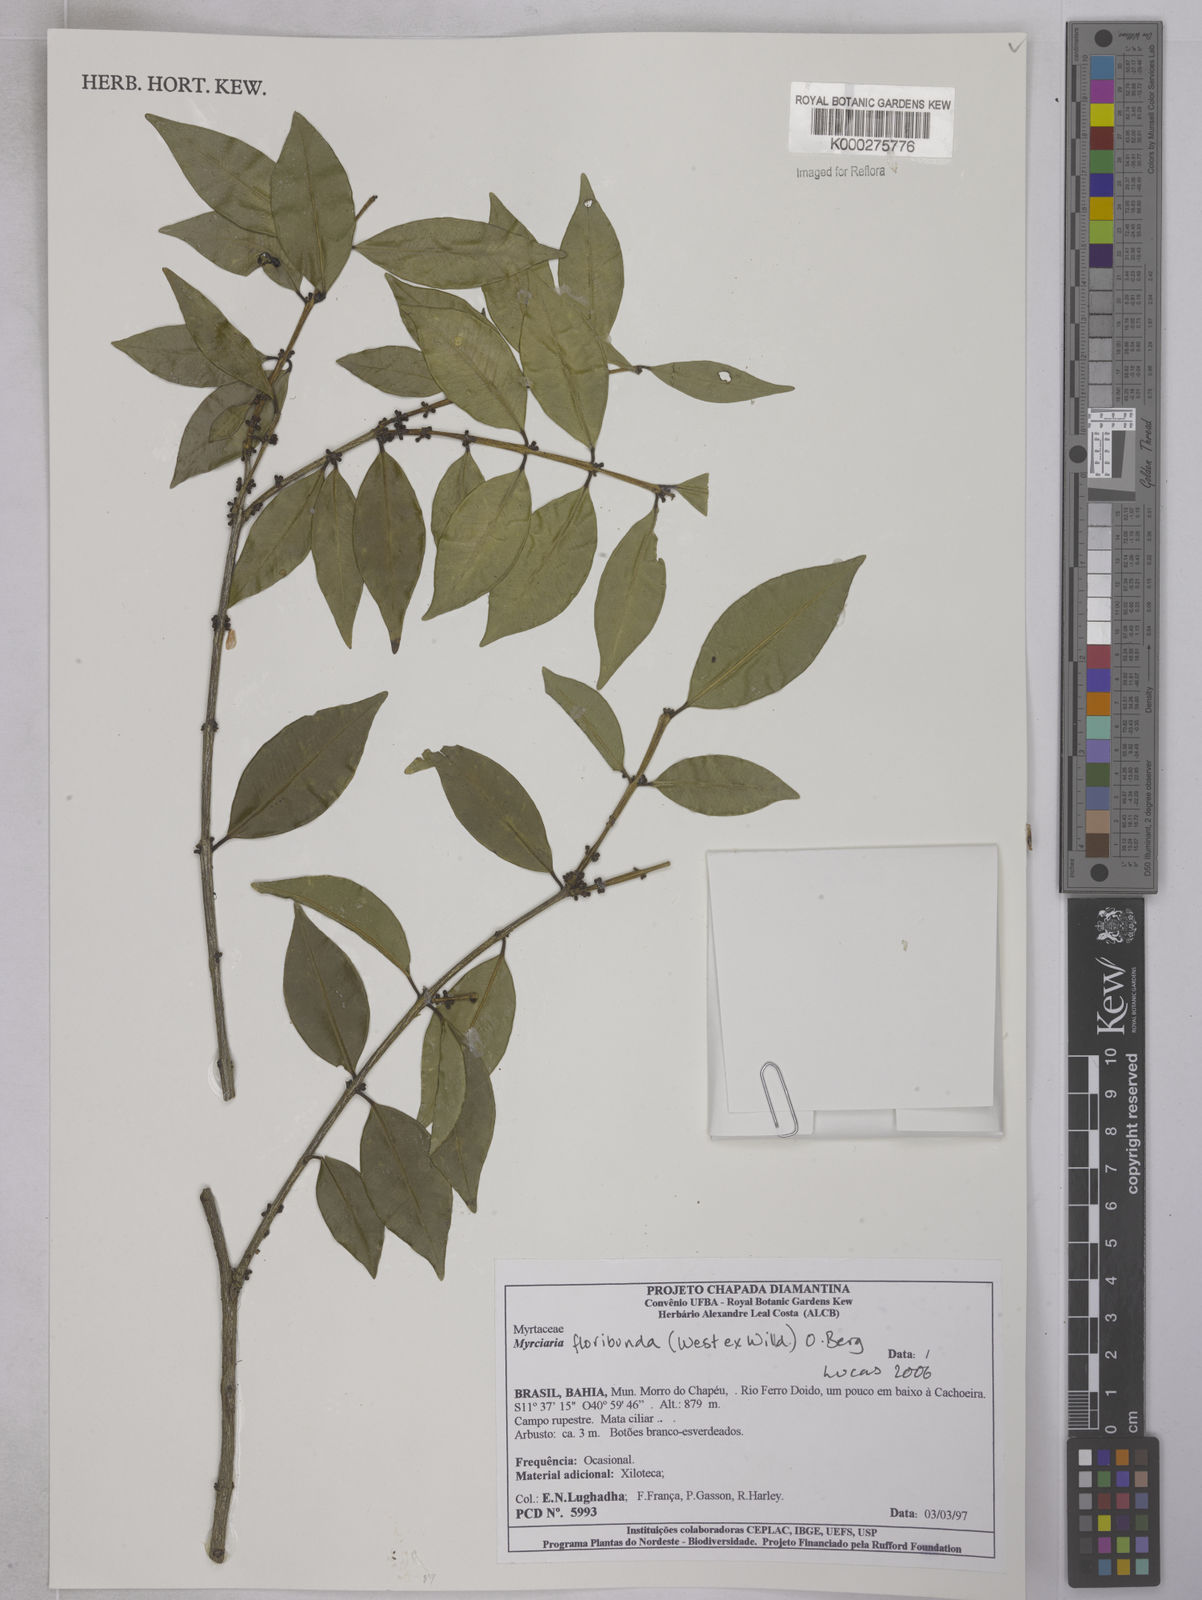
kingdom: Plantae
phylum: Tracheophyta
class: Magnoliopsida
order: Myrtales
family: Myrtaceae
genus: Myrciaria
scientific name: Myrciaria floribunda
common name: Guavaberry
